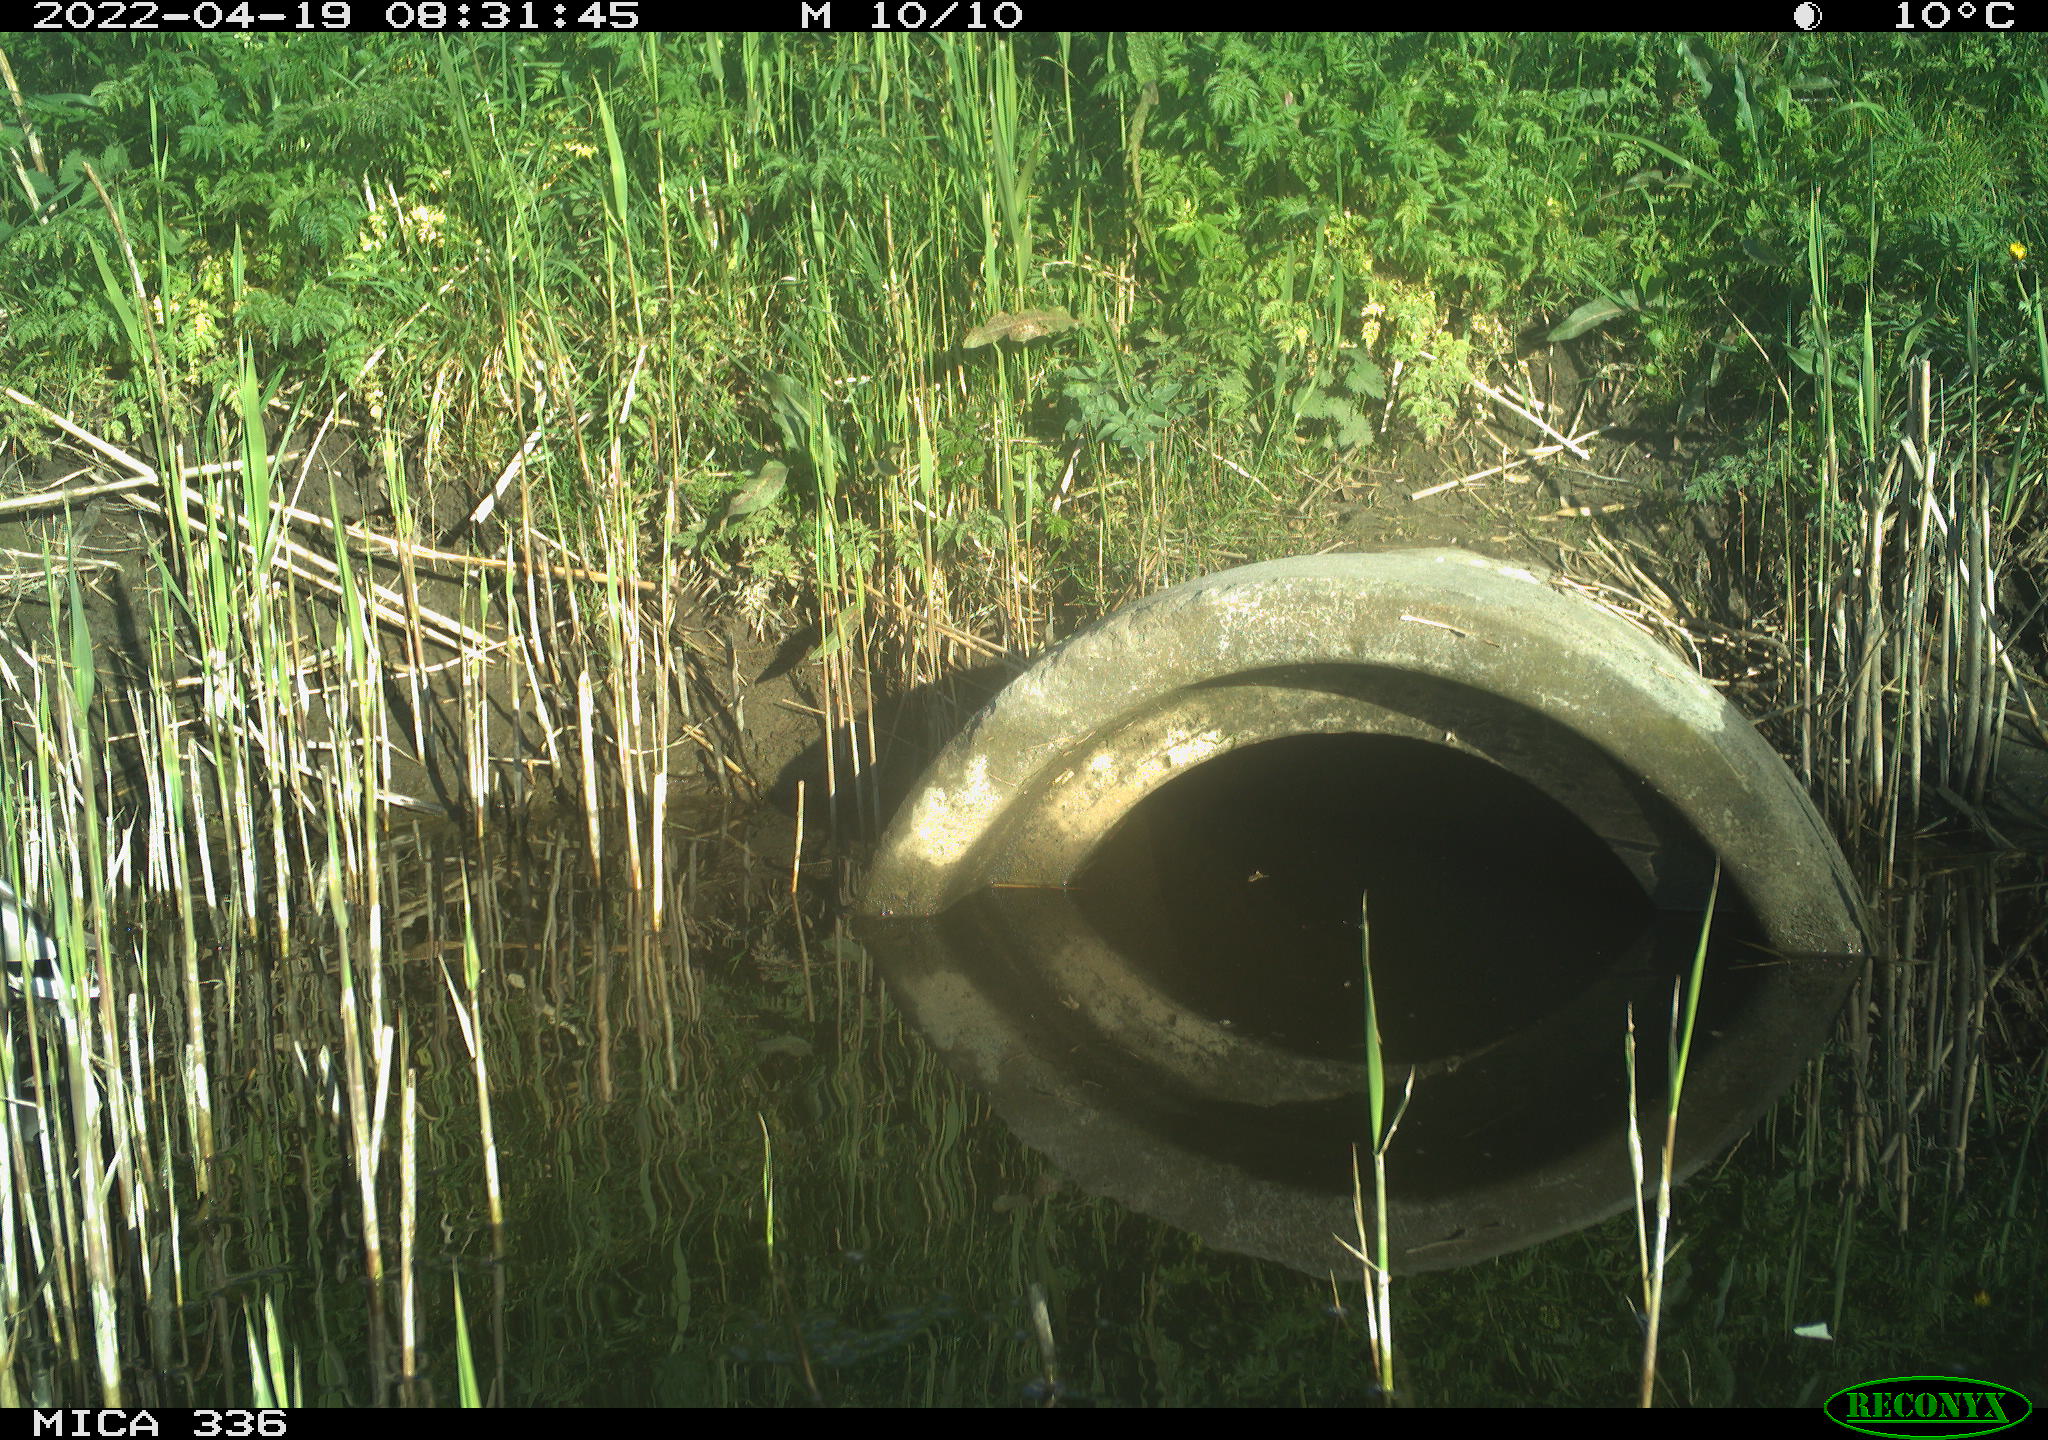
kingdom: Animalia
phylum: Chordata
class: Aves
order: Anseriformes
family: Anatidae
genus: Anas
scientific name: Anas platyrhynchos
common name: Mallard
